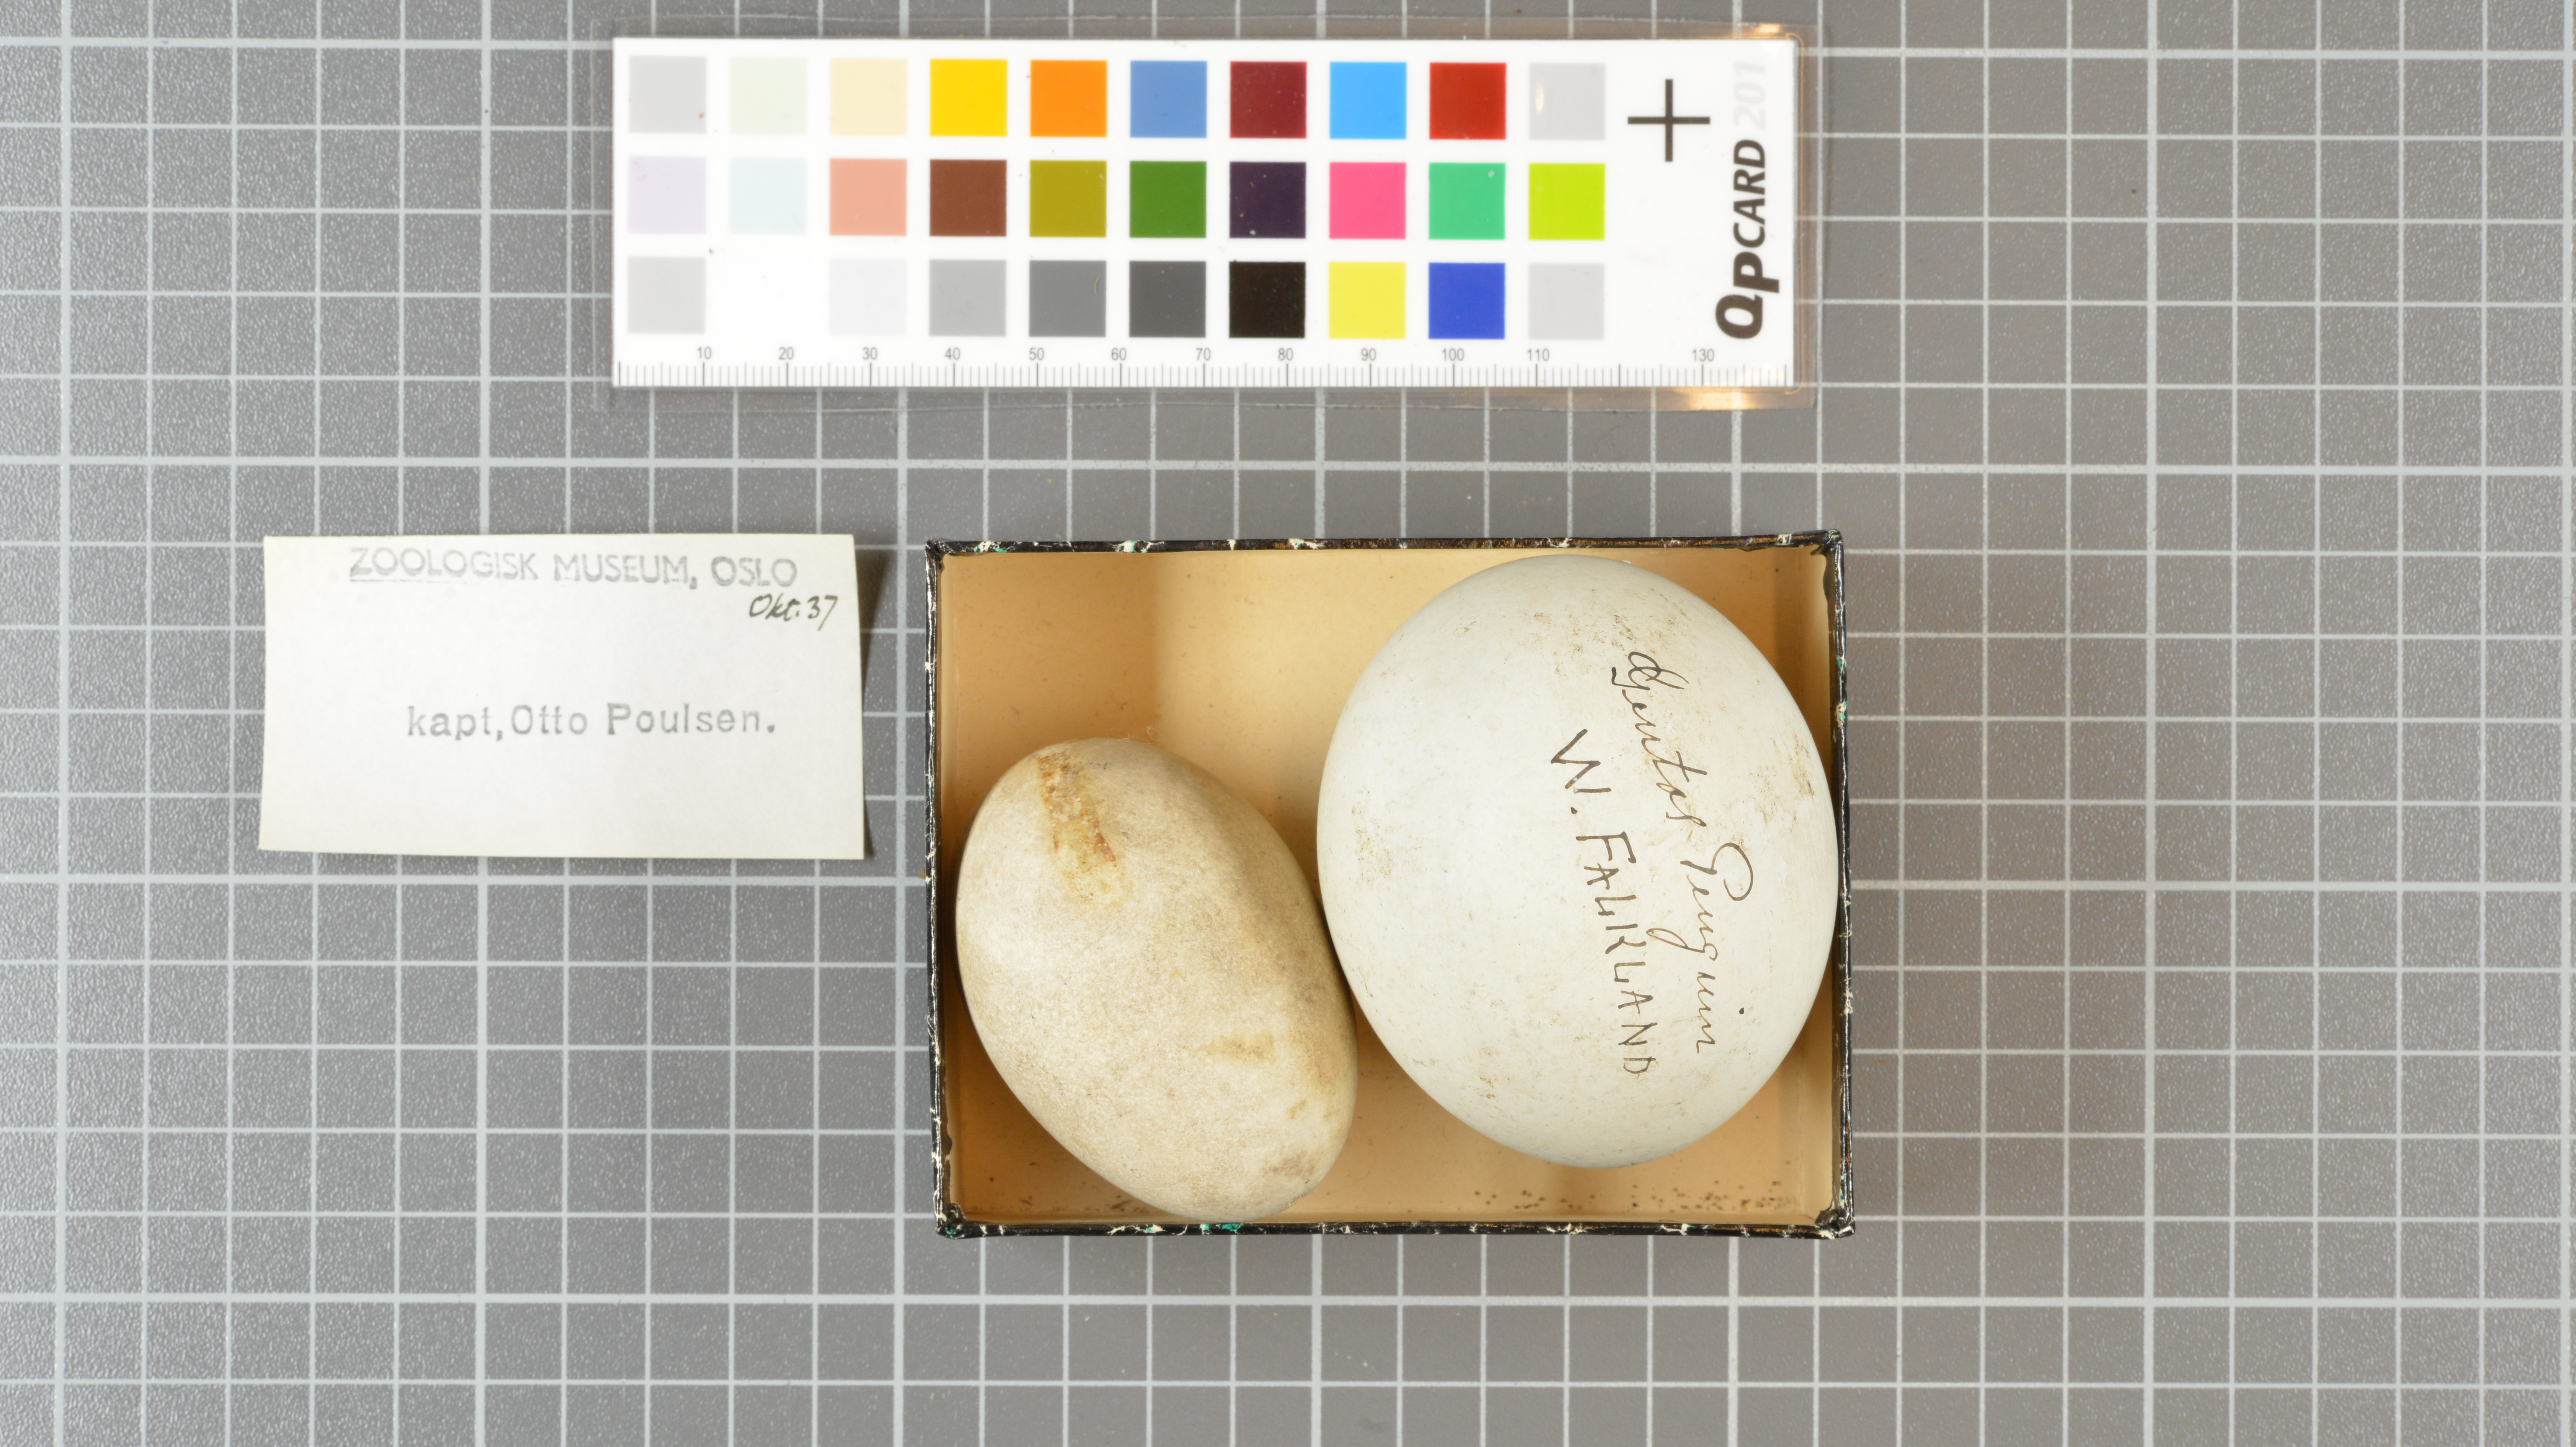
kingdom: Animalia
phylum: Chordata
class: Aves
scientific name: Aves
